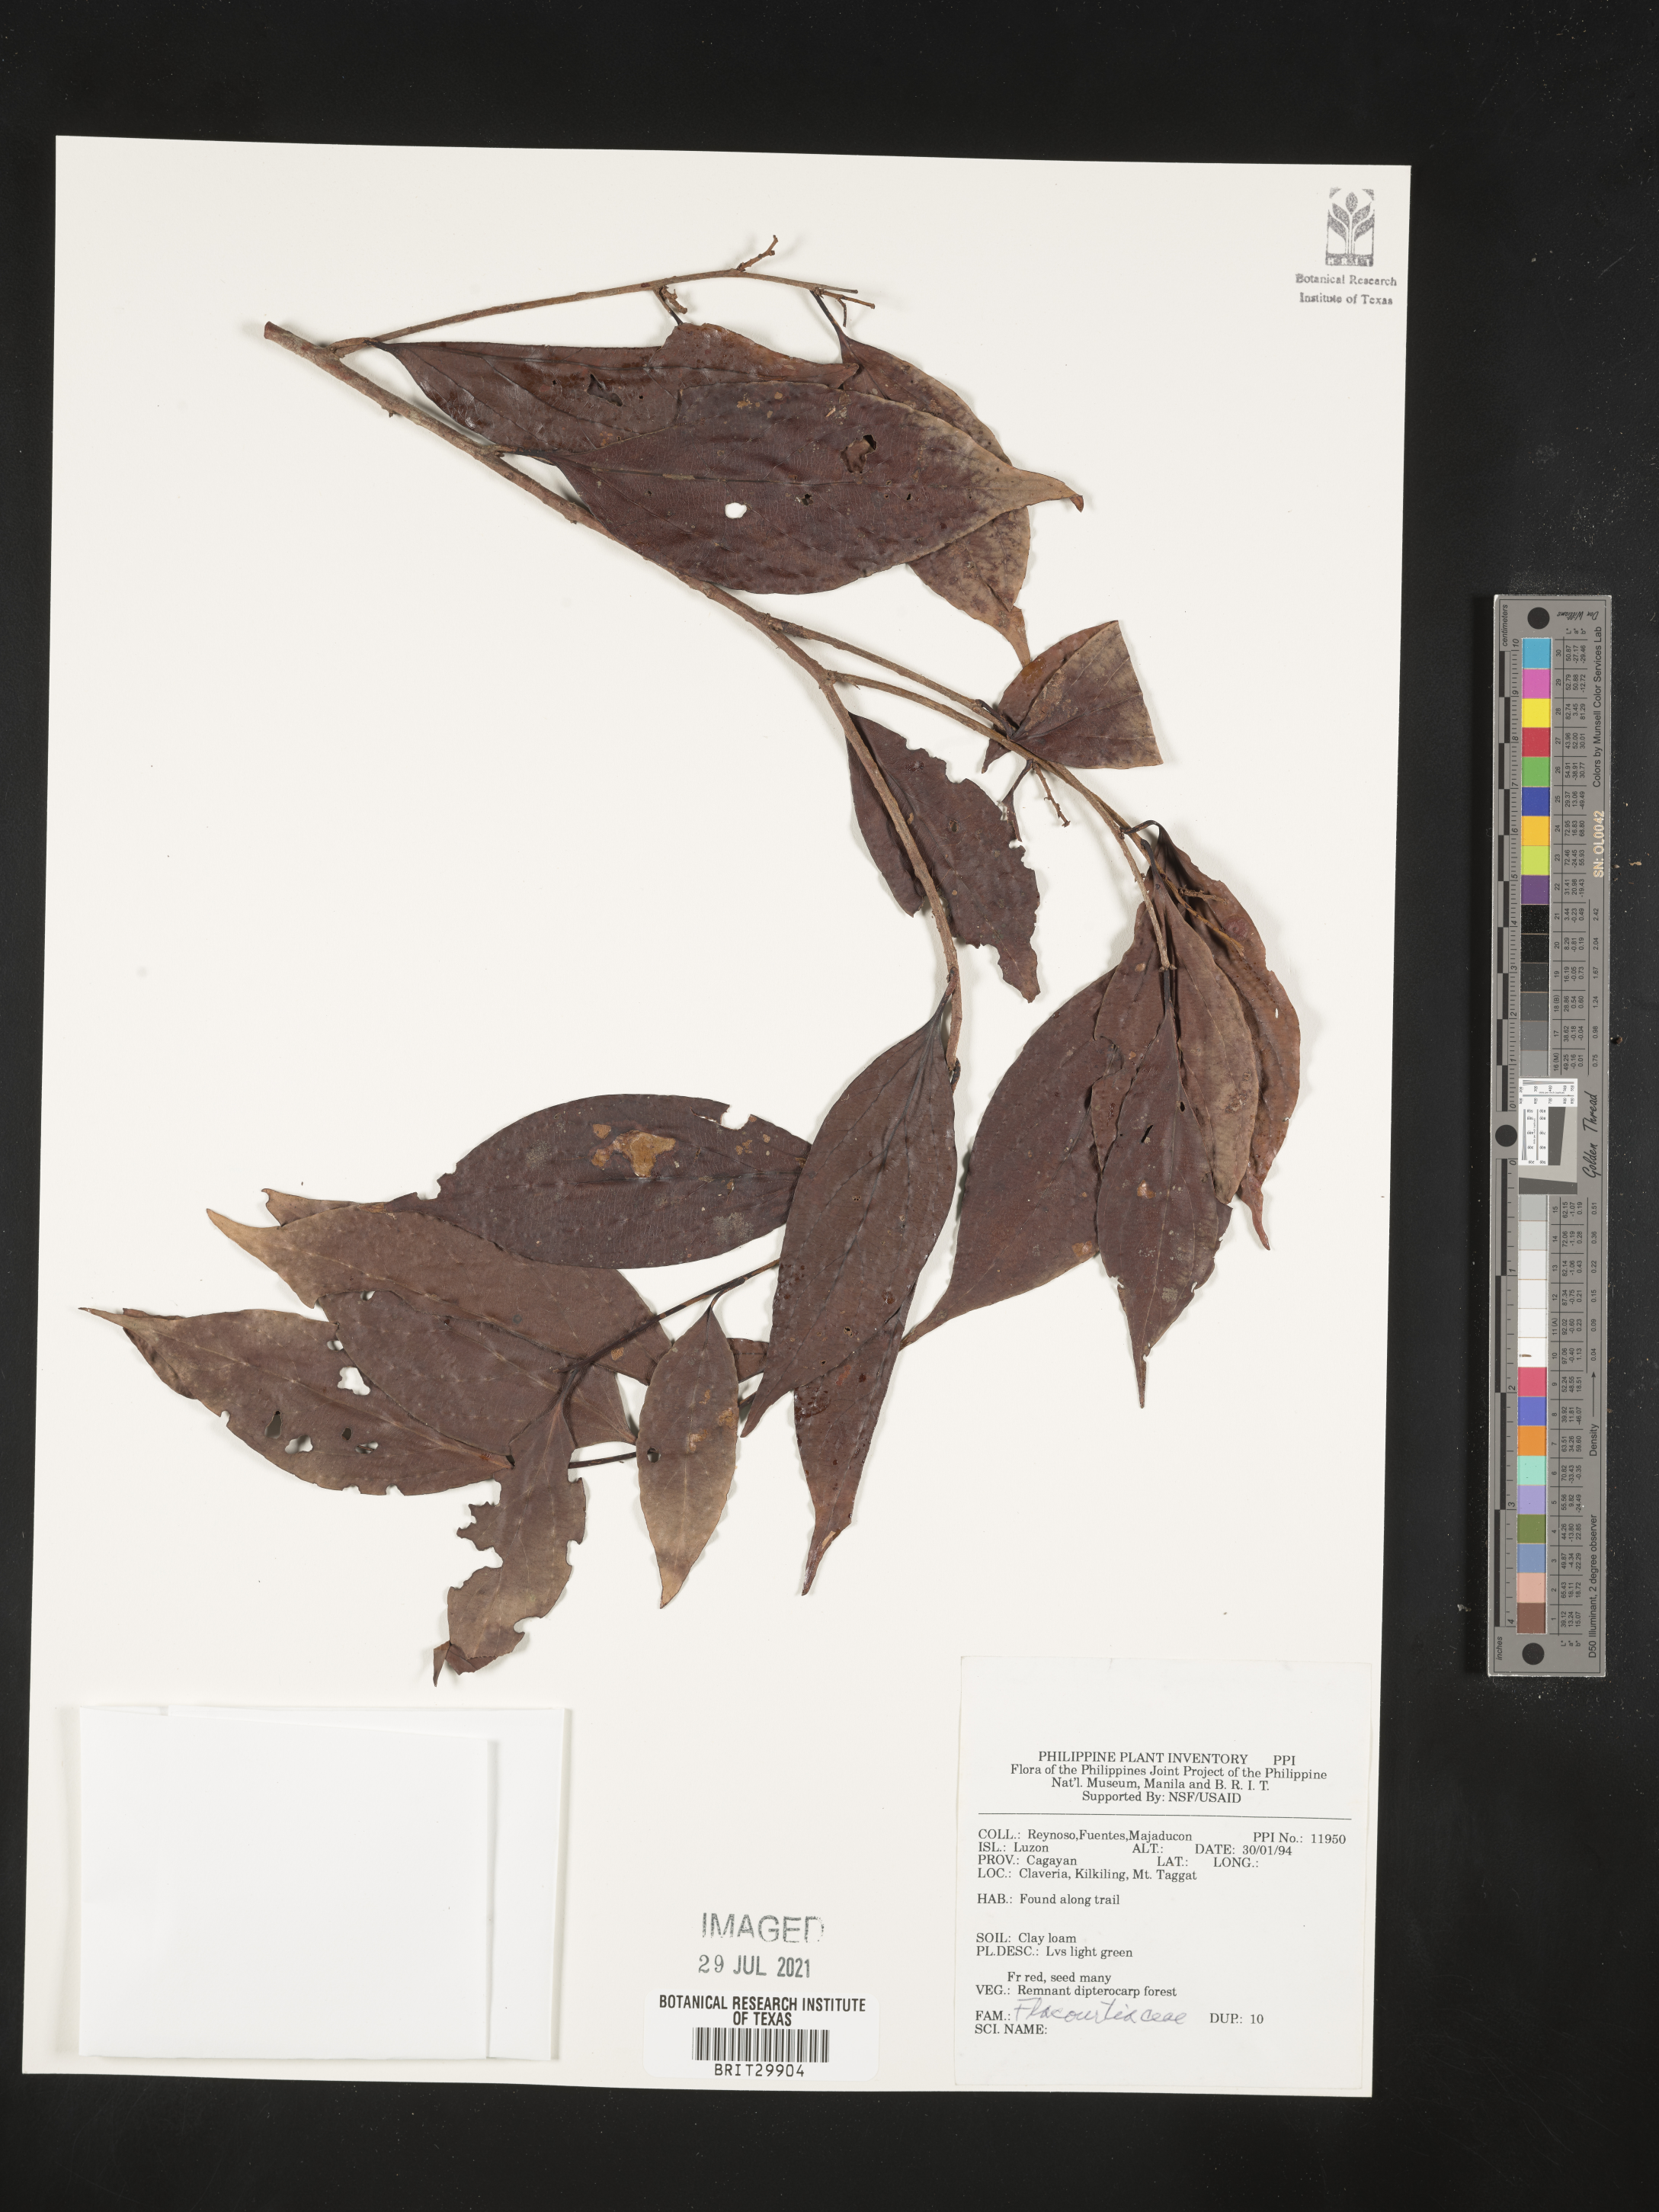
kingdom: Plantae
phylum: Tracheophyta
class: Magnoliopsida
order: Malpighiales
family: Flacourtiaceae
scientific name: Flacourtiaceae
